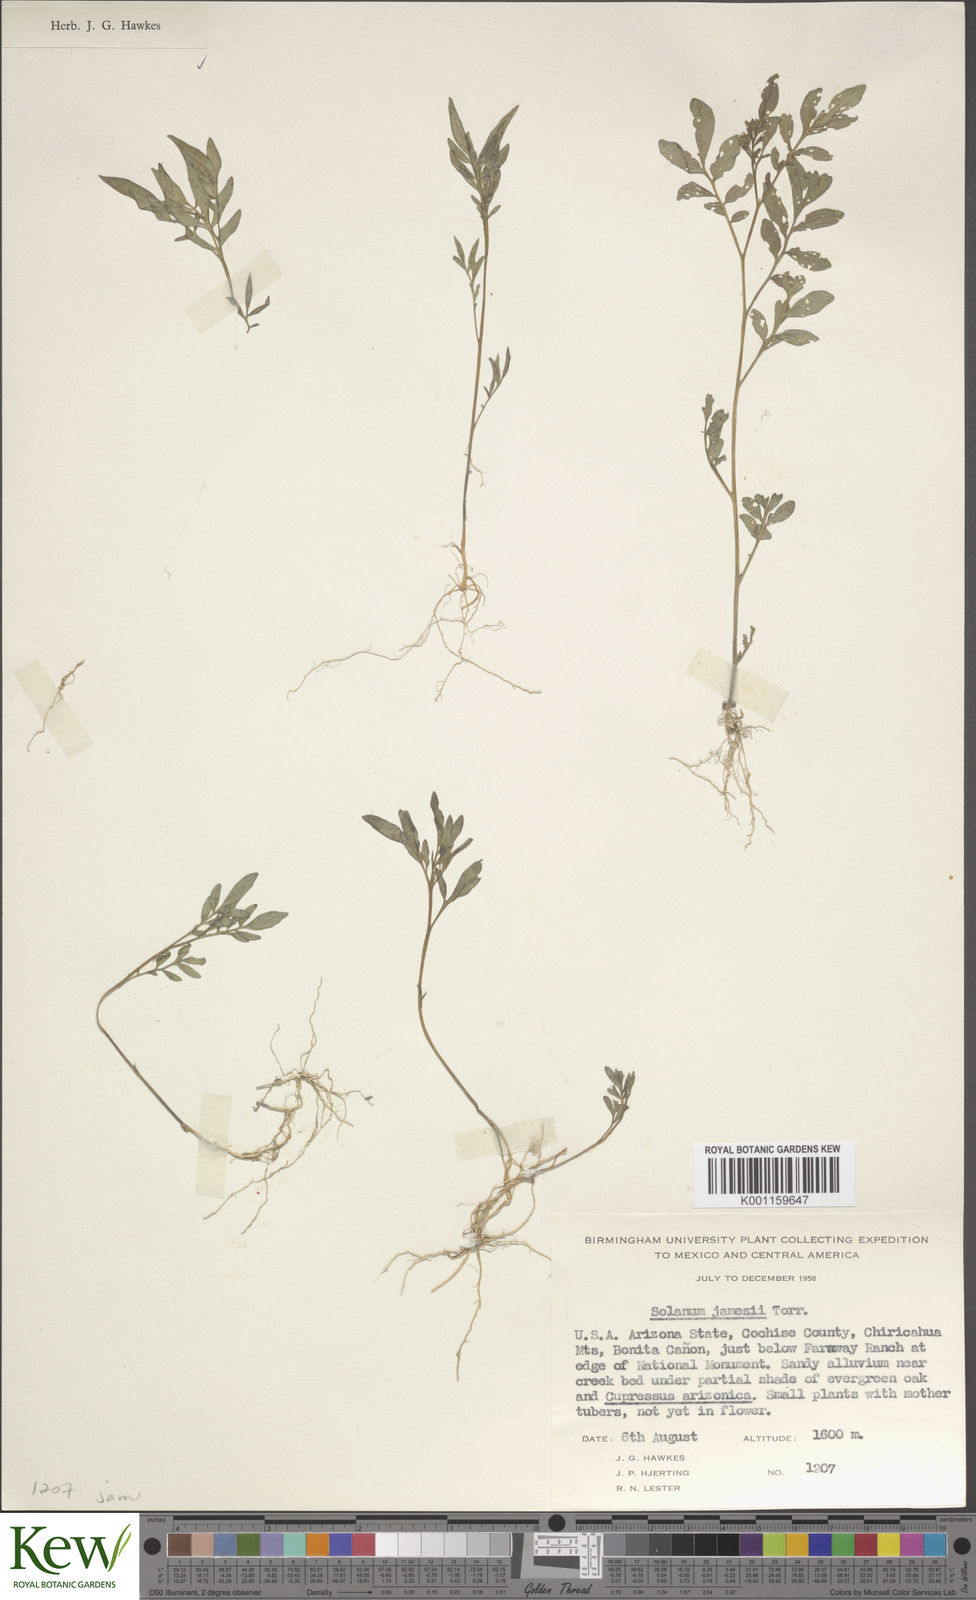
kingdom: Plantae
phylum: Tracheophyta
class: Magnoliopsida
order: Solanales
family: Solanaceae
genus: Solanum
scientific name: Solanum jamesii
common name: Wild potato
